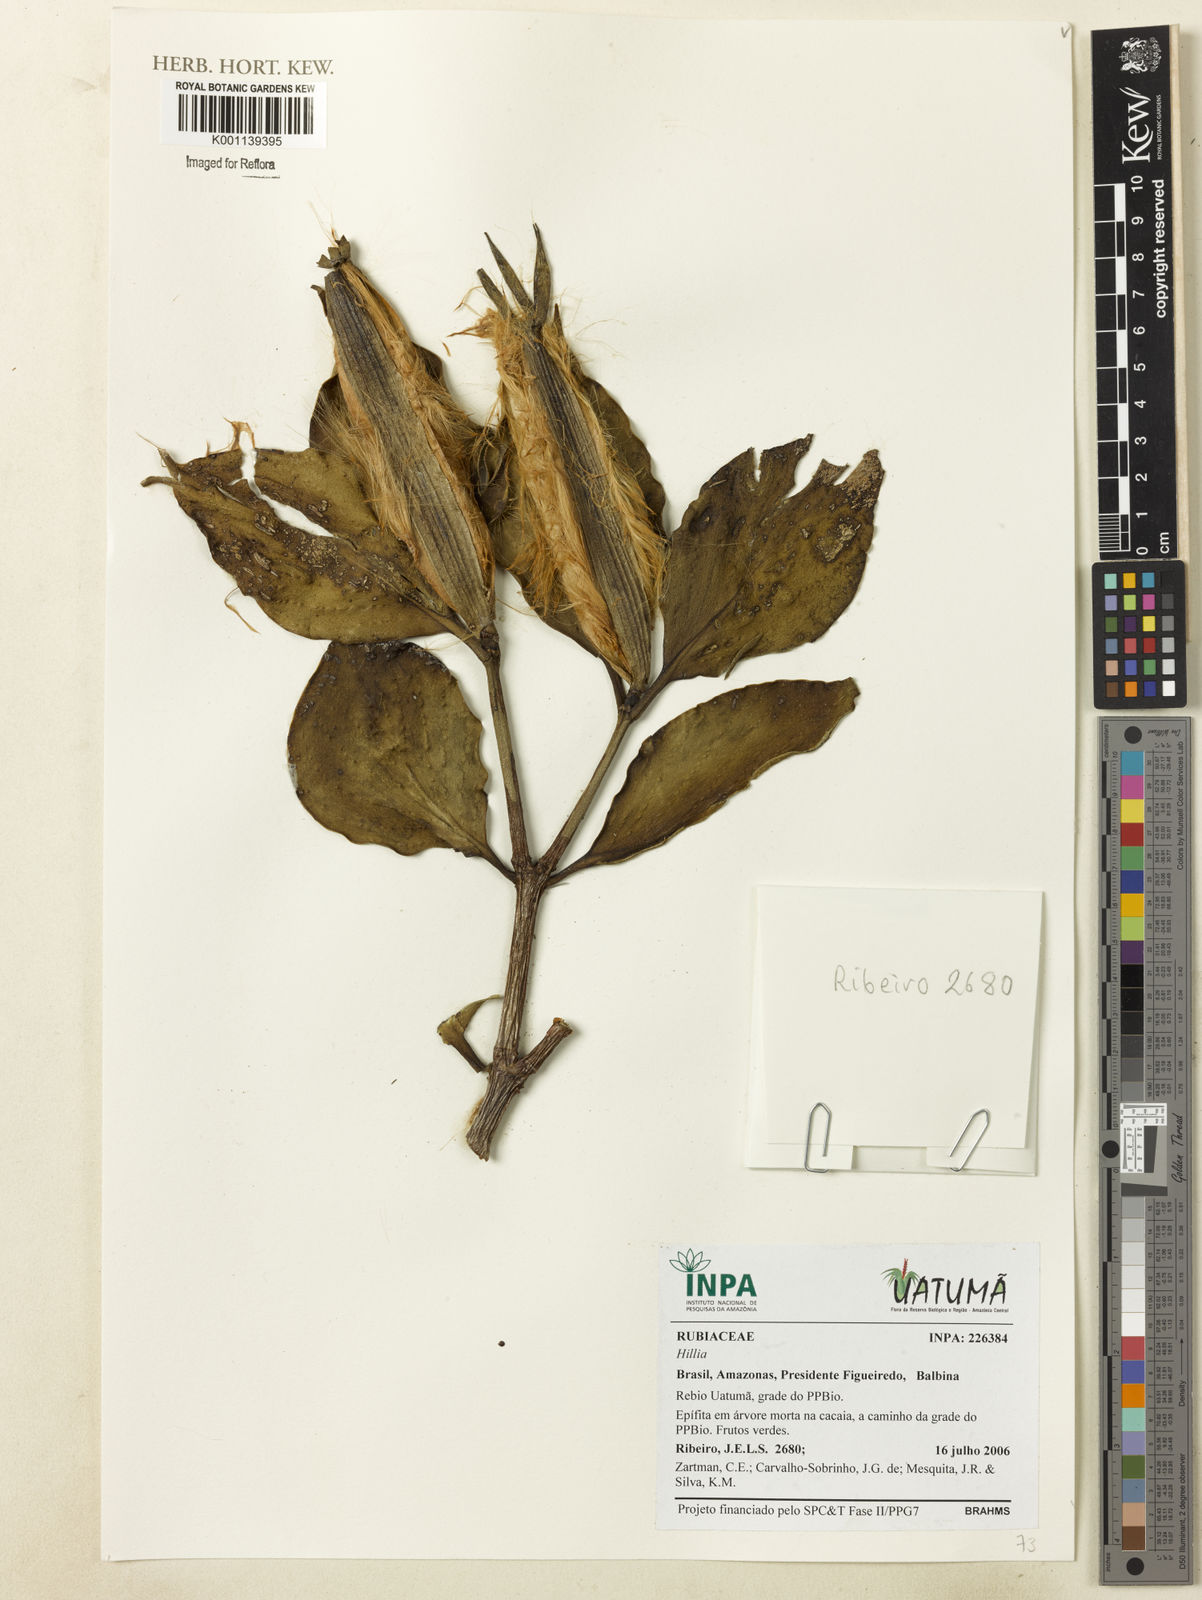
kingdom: Plantae
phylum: Tracheophyta
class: Magnoliopsida
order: Gentianales
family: Rubiaceae
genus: Hillia
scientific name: Hillia
